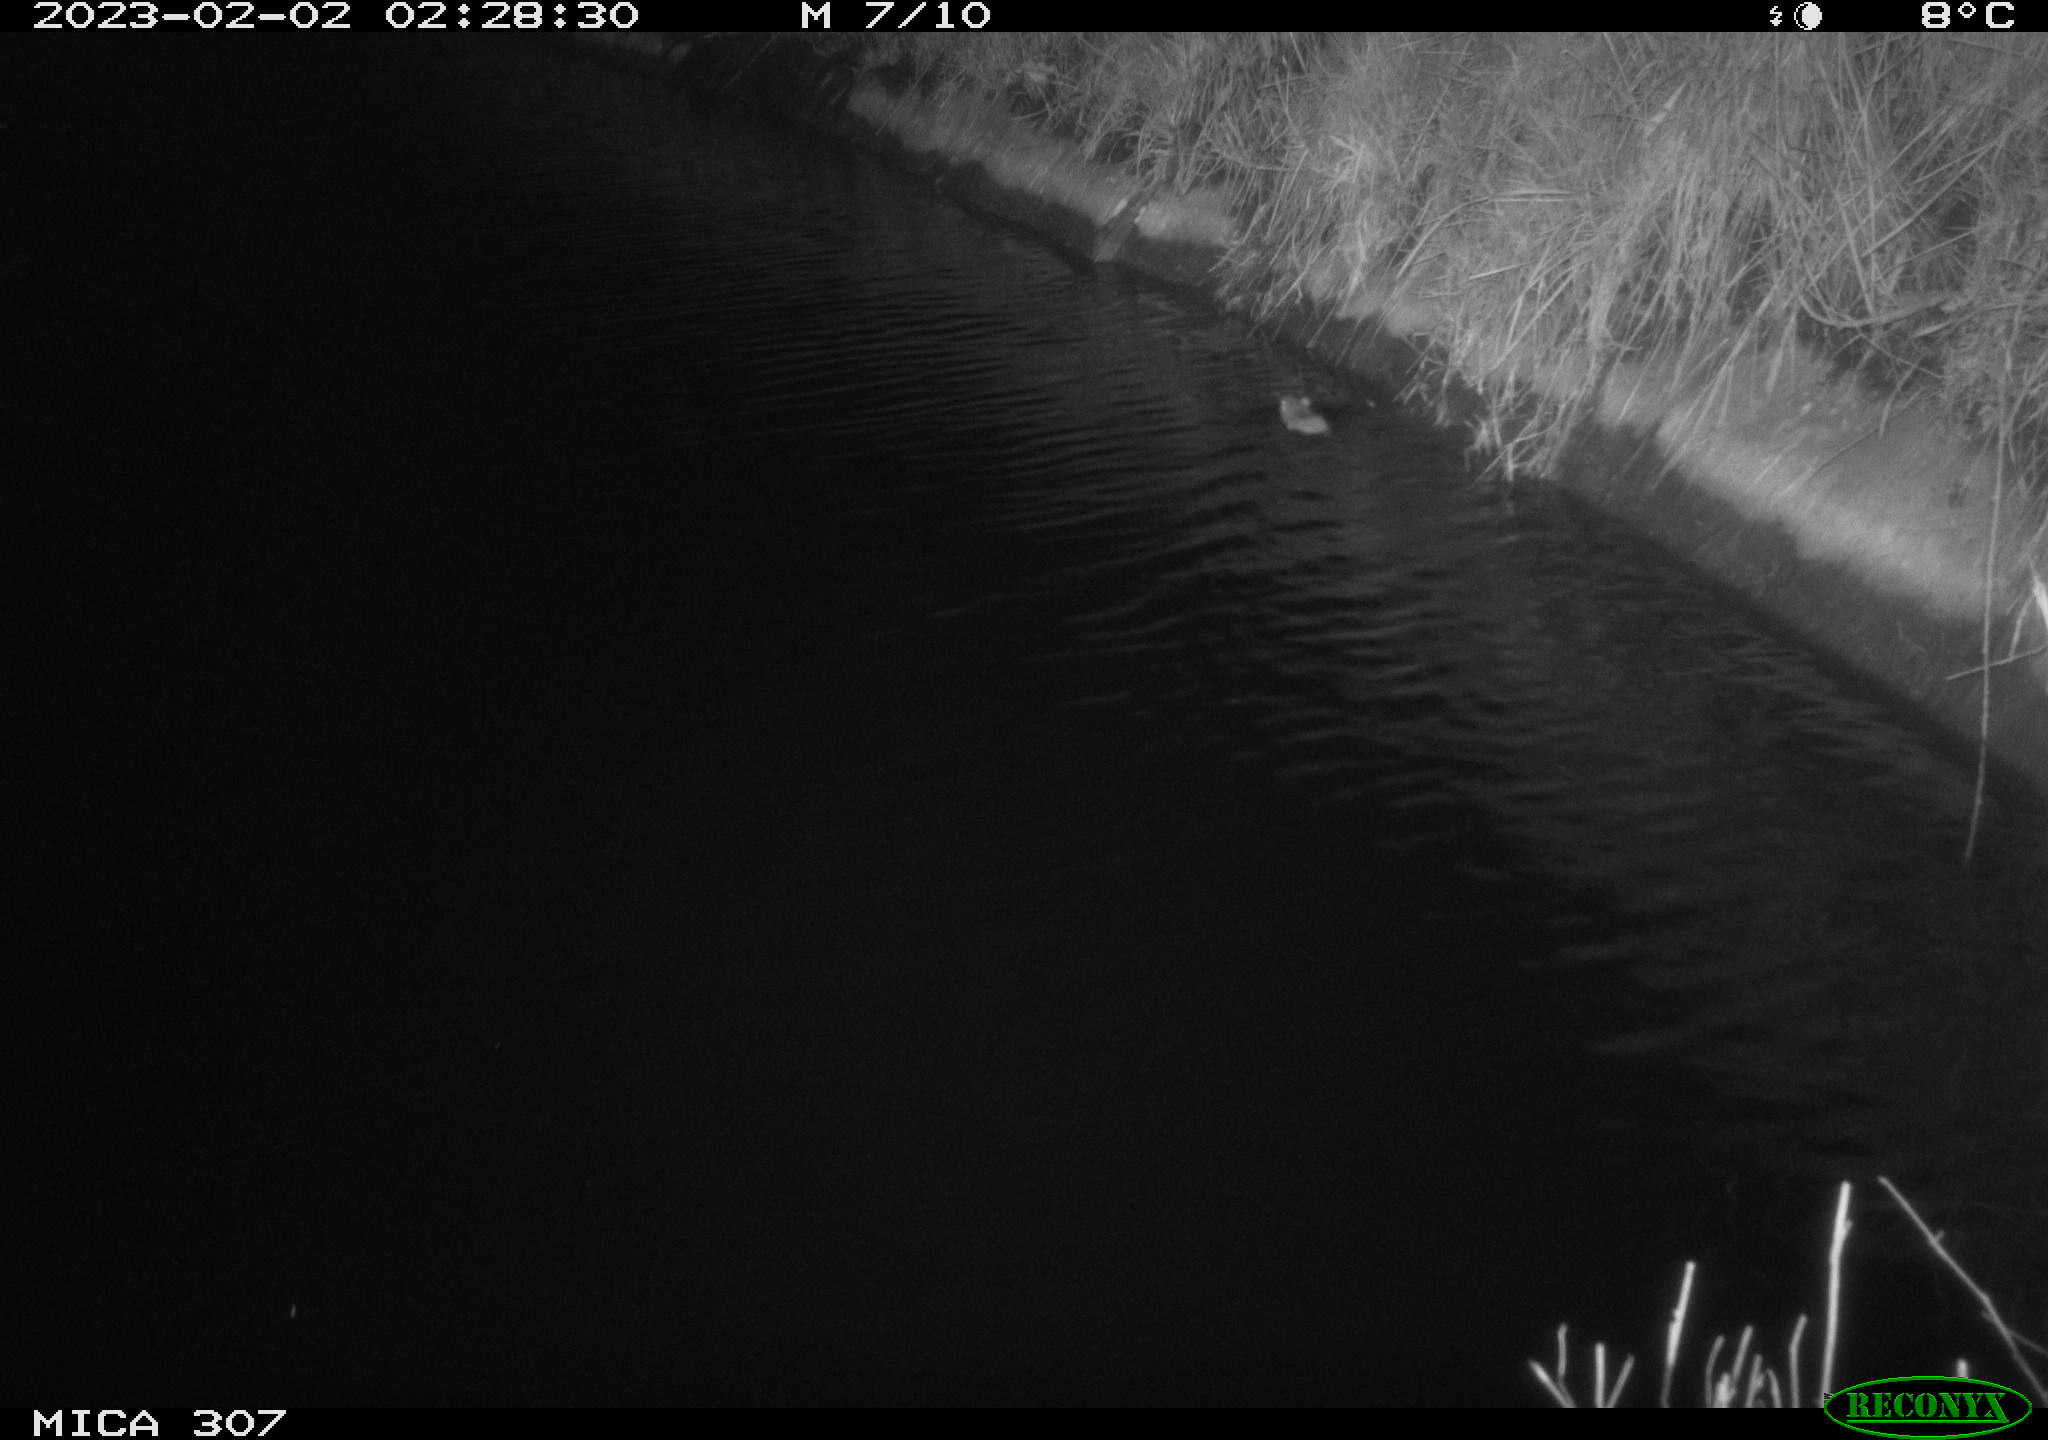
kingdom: Animalia
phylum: Chordata
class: Mammalia
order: Rodentia
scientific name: Rodentia
